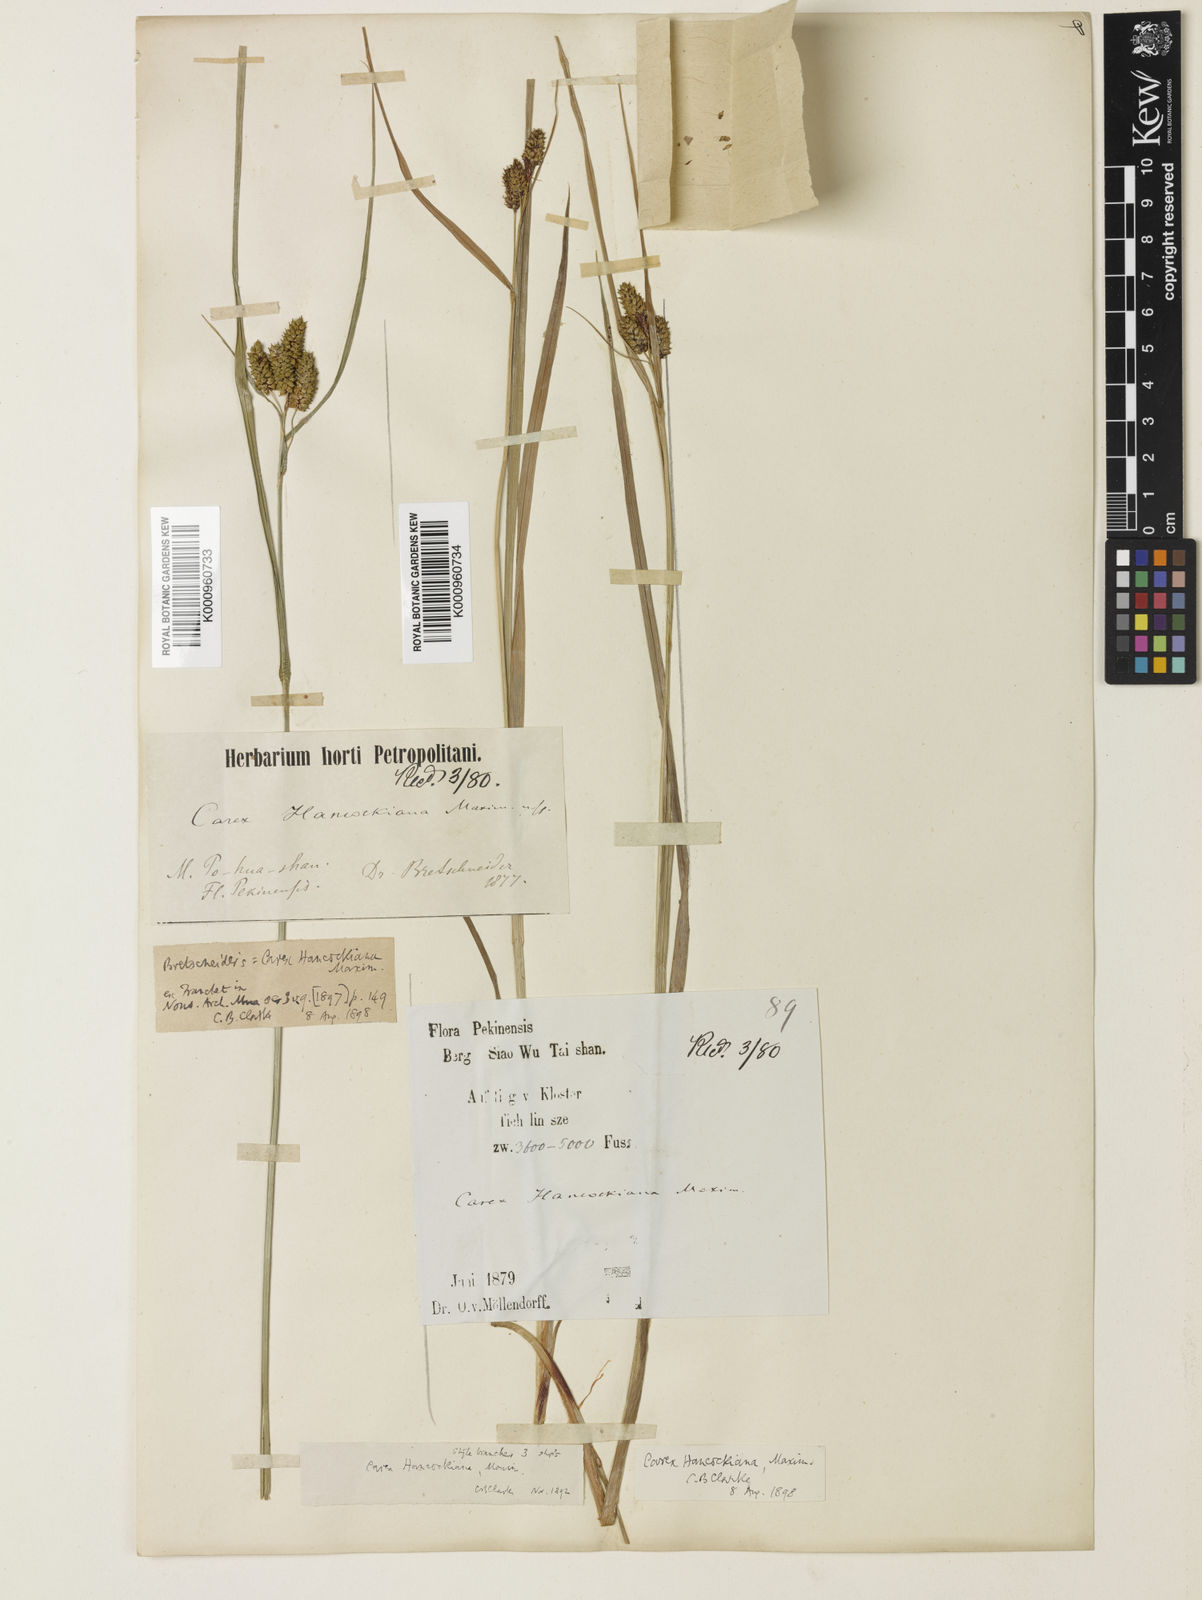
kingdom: Plantae
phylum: Tracheophyta
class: Liliopsida
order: Poales
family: Cyperaceae
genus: Carex
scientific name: Carex hancockiana
